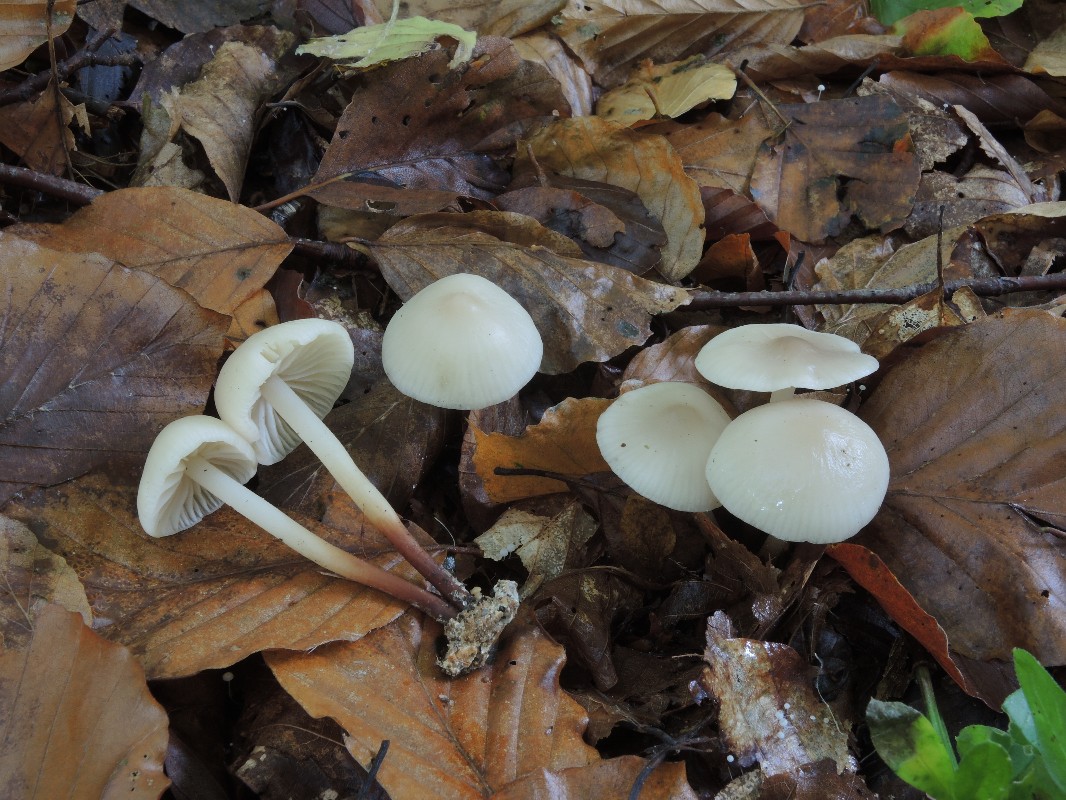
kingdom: Fungi
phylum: Basidiomycota
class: Agaricomycetes
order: Agaricales
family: Marasmiaceae
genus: Marasmius
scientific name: Marasmius wynneae
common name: hvælvet bruskhat
